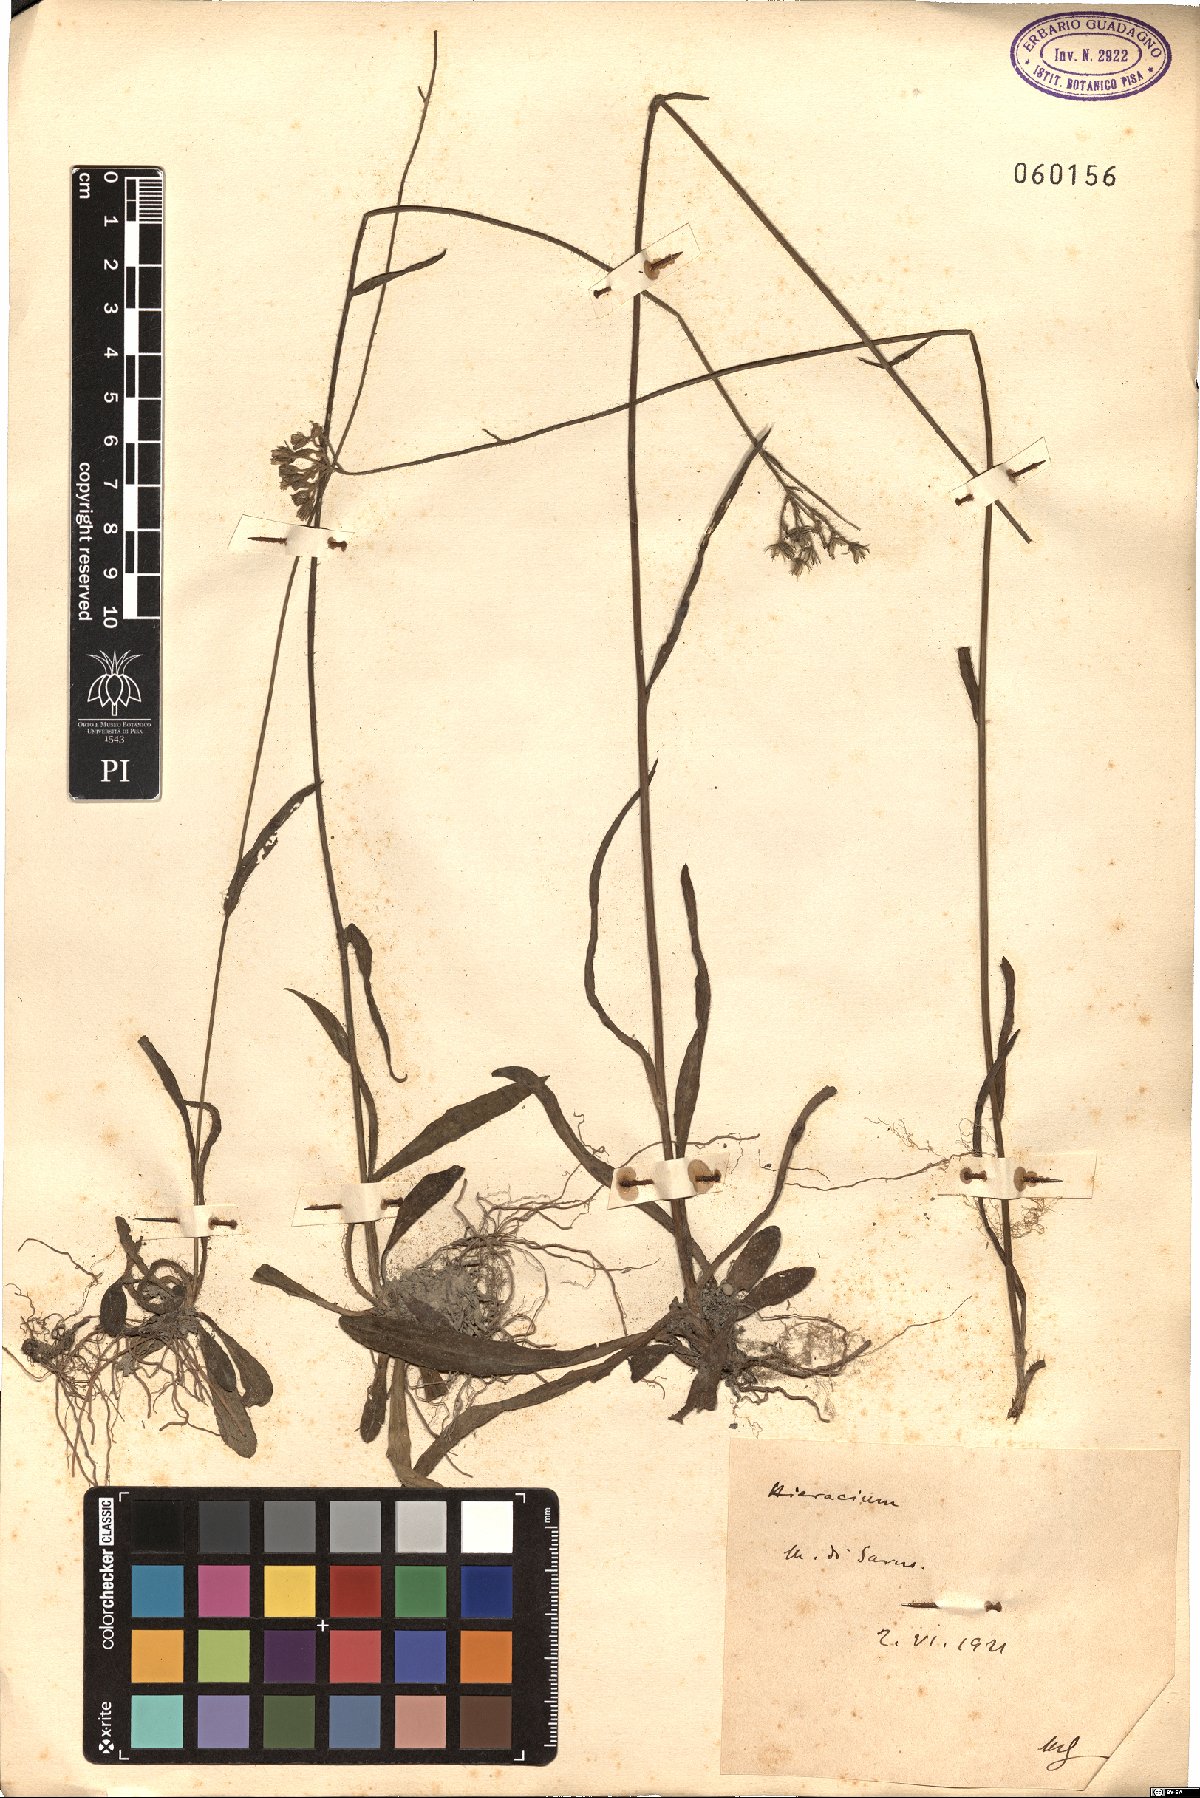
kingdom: Plantae
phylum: Tracheophyta
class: Magnoliopsida
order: Asterales
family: Asteraceae
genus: Hieracium
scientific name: Hieracium
